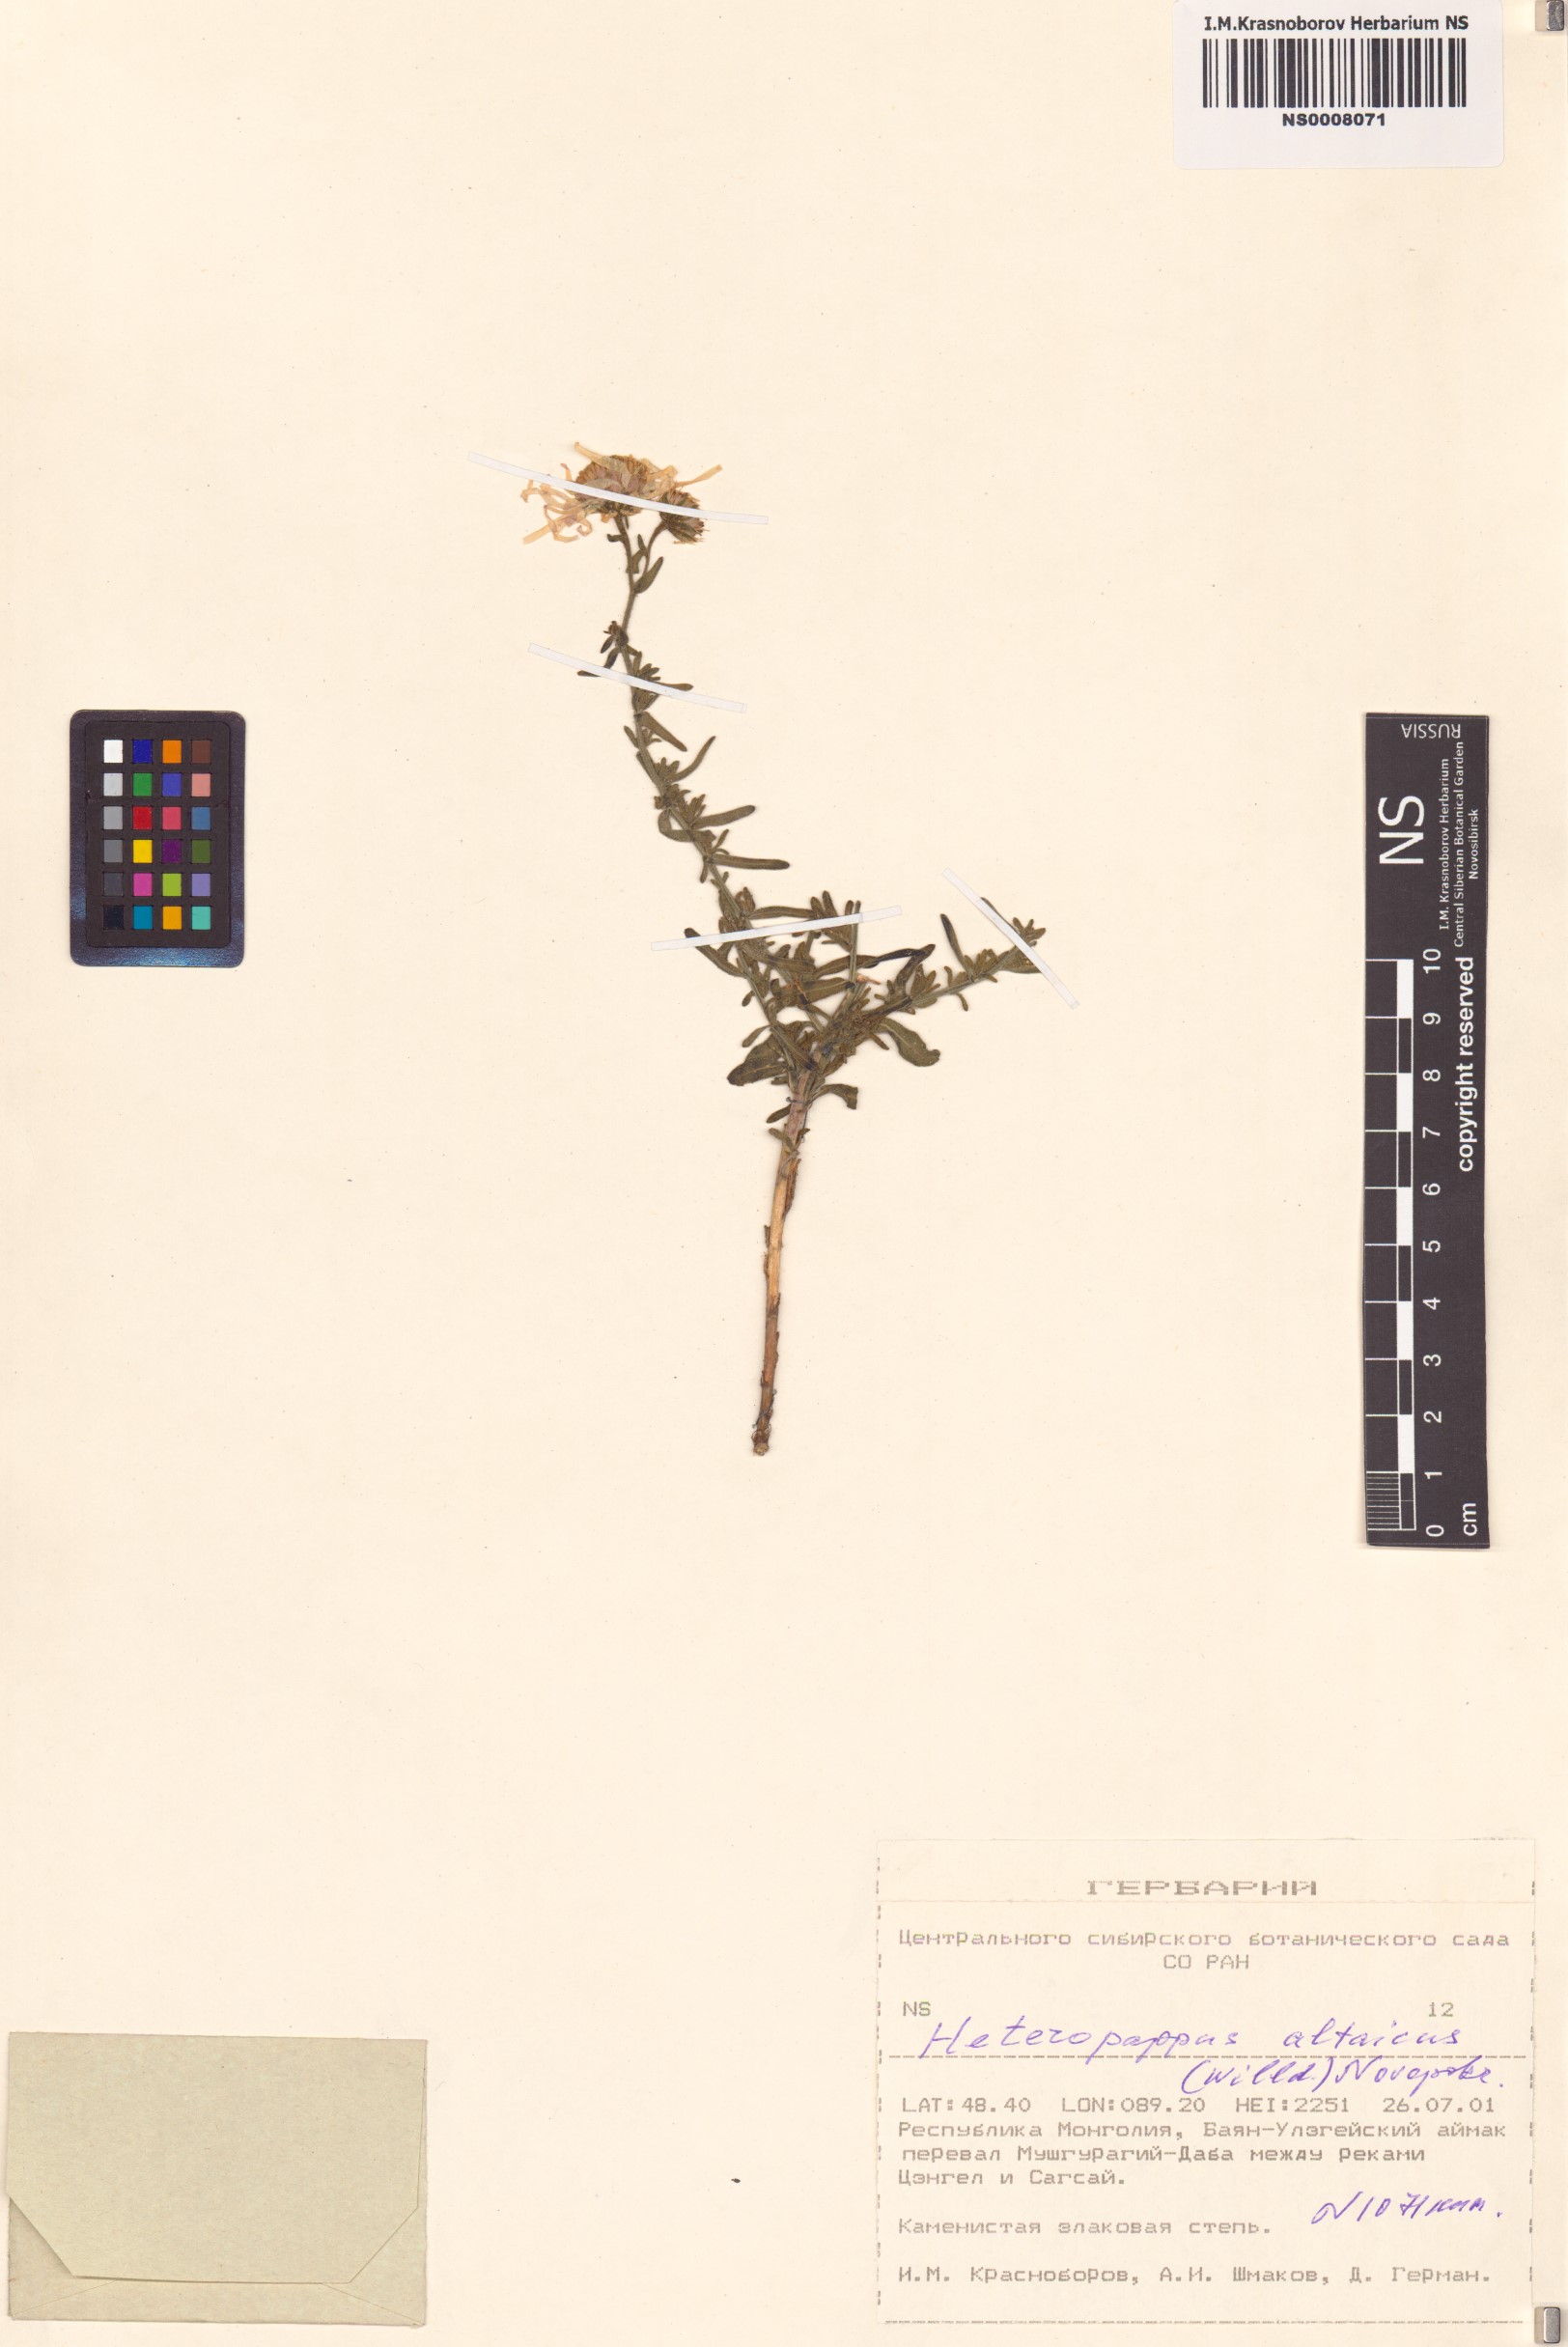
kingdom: Plantae
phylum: Tracheophyta
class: Magnoliopsida
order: Asterales
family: Asteraceae
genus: Heteropappus
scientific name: Heteropappus altaicus
